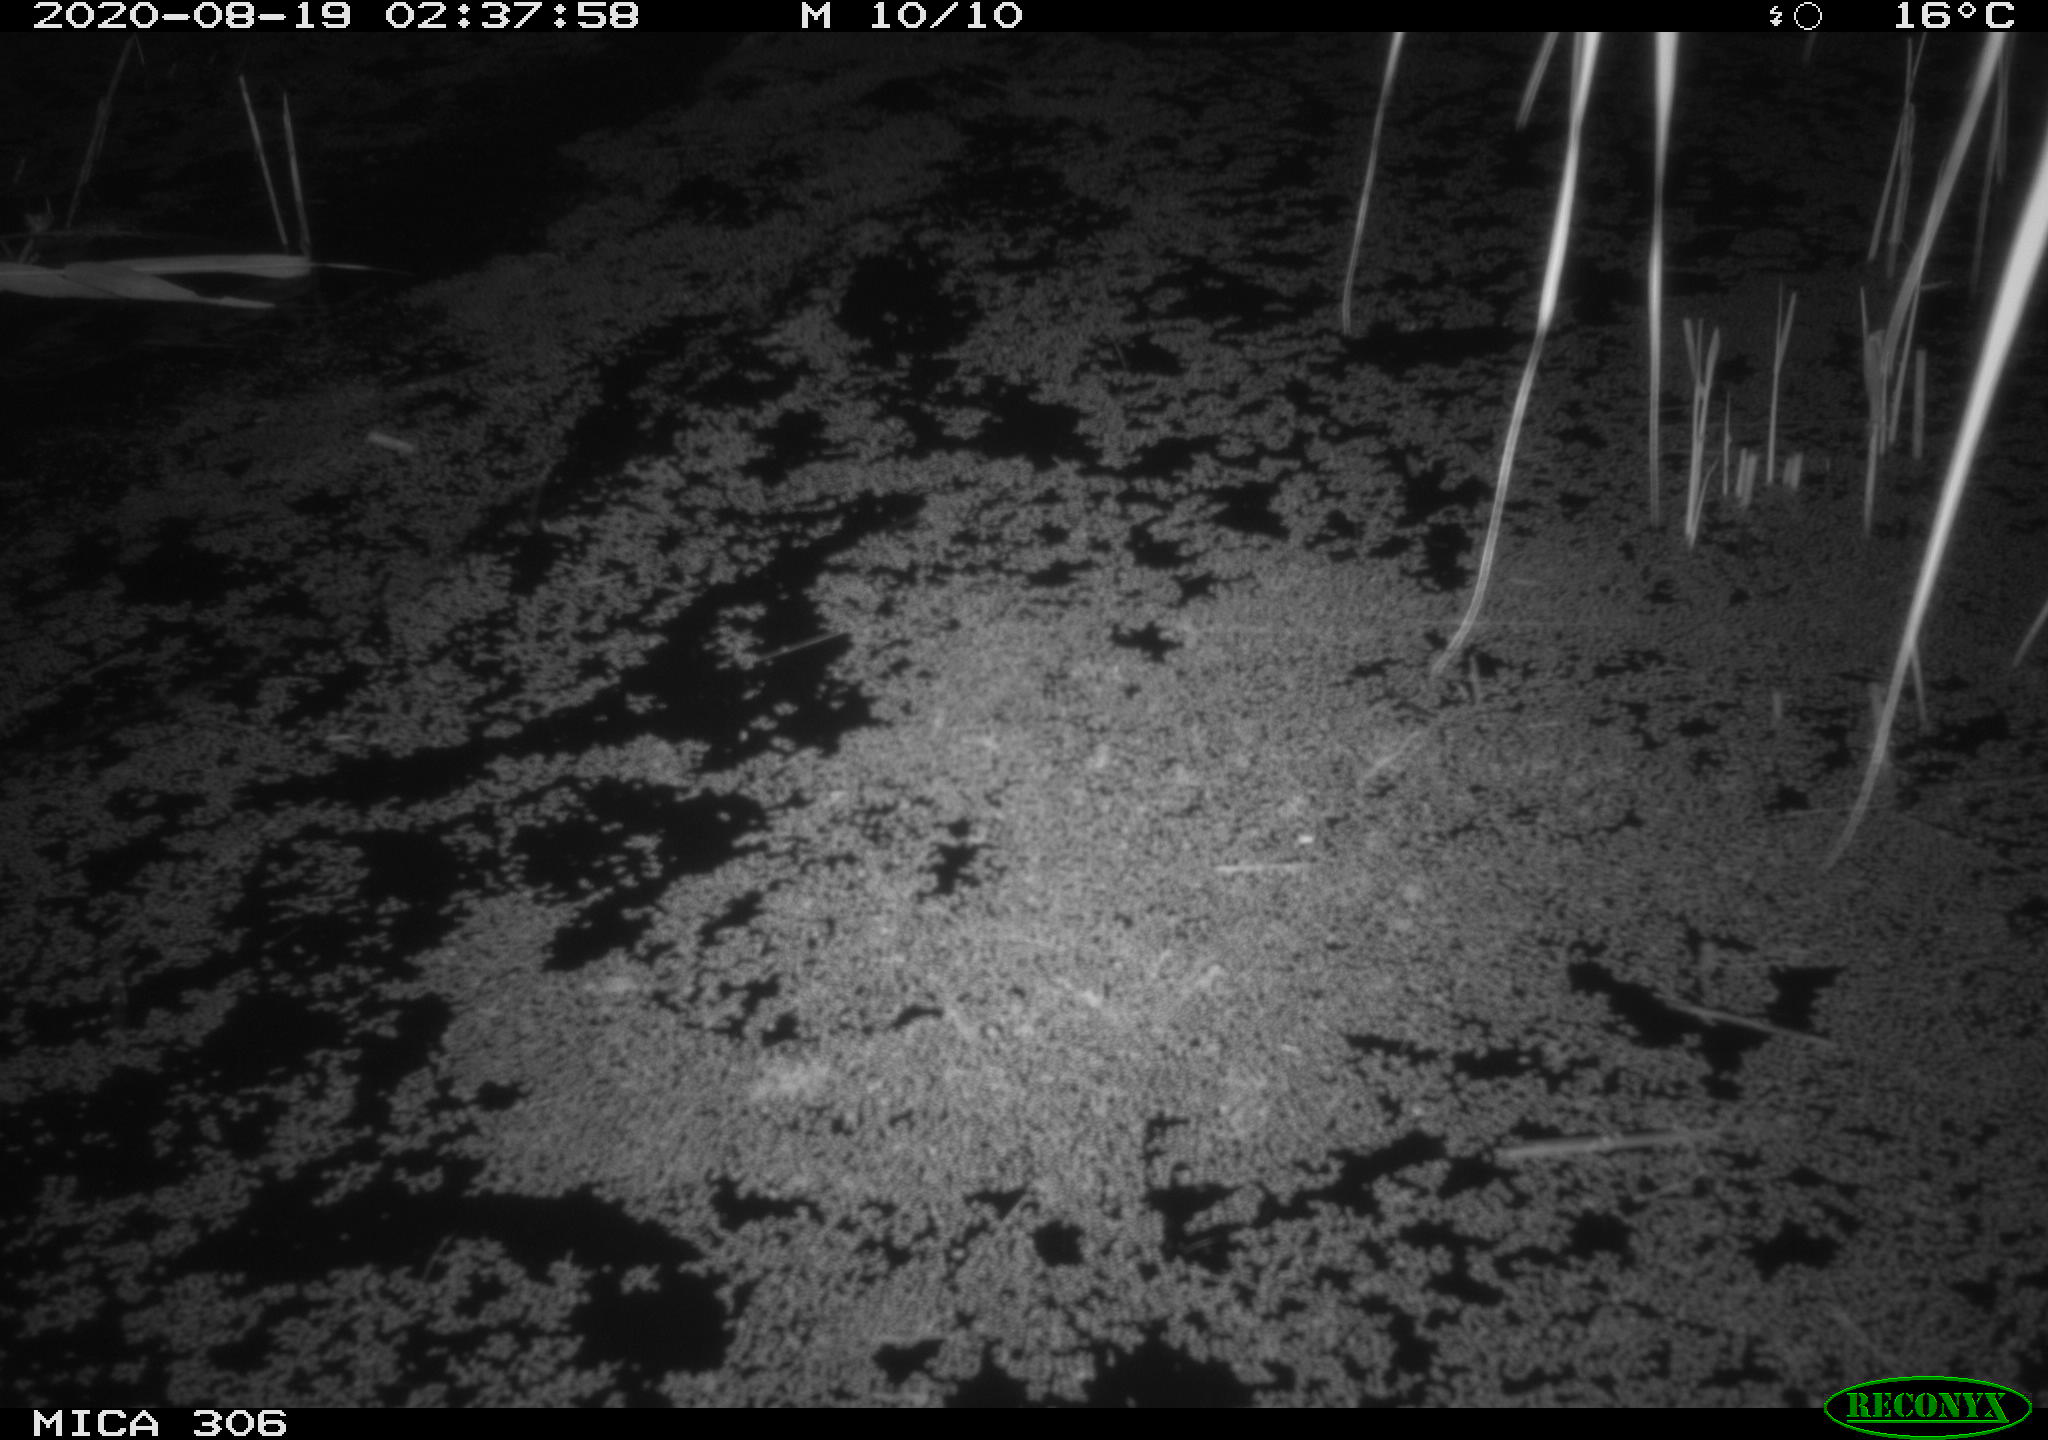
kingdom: Animalia
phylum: Chordata
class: Mammalia
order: Rodentia
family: Muridae
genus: Rattus
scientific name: Rattus norvegicus
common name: Brown rat
